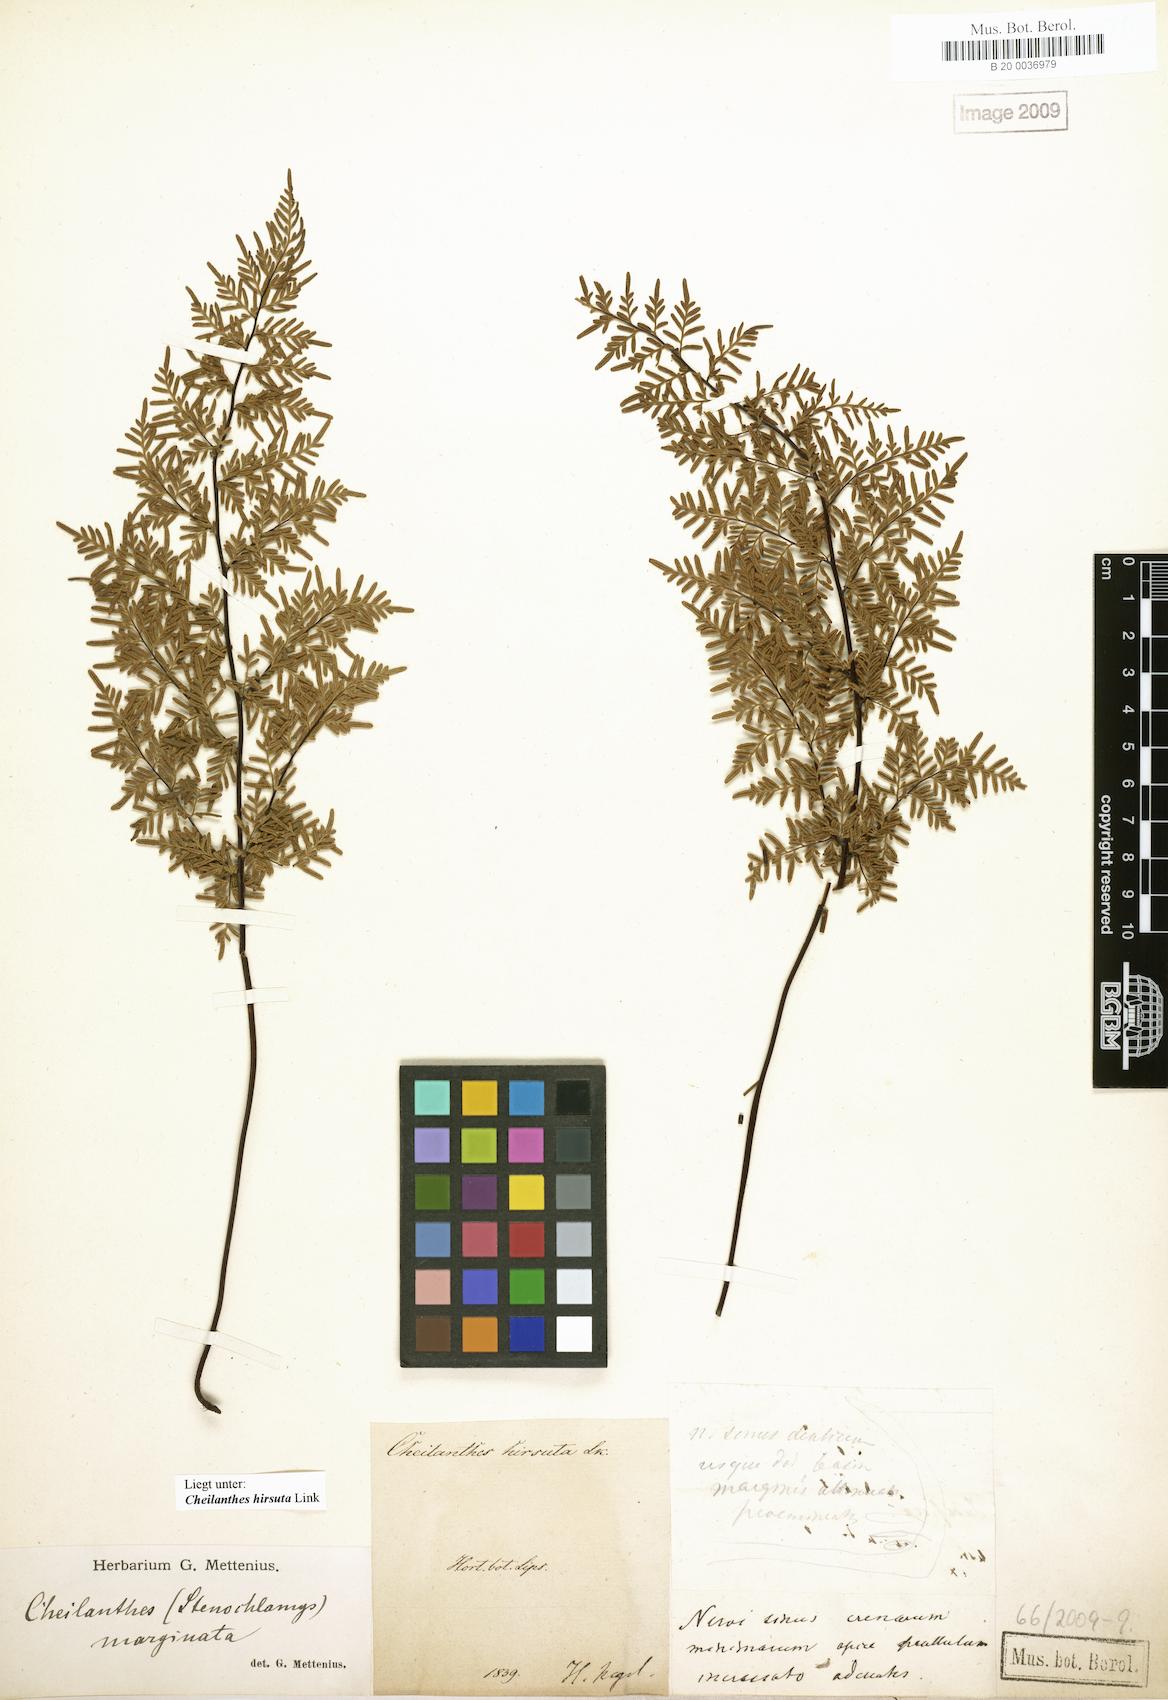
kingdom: Plantae
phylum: Tracheophyta
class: Polypodiopsida
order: Polypodiales
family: Pteridaceae
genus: Gaga
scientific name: Gaga hirsuta
